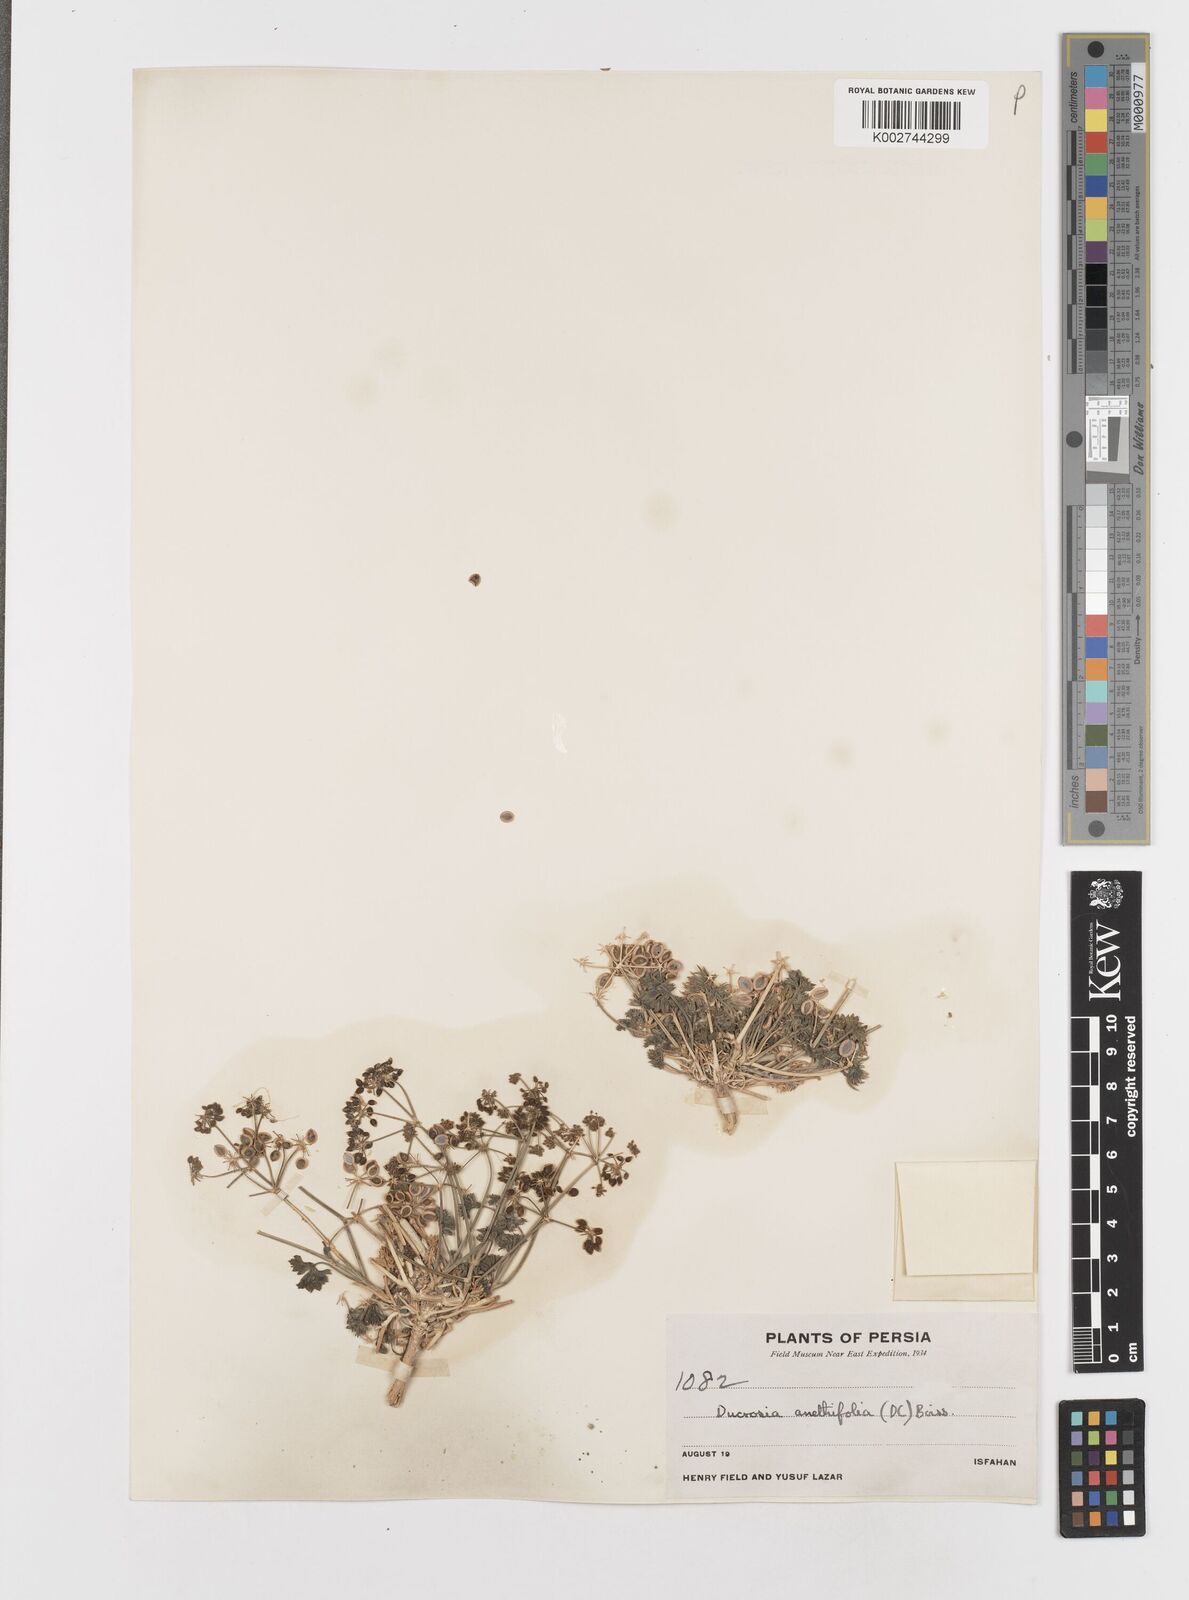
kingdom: Plantae
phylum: Tracheophyta
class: Magnoliopsida
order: Apiales
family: Apiaceae
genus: Ducrosia
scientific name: Ducrosia anethifolia
